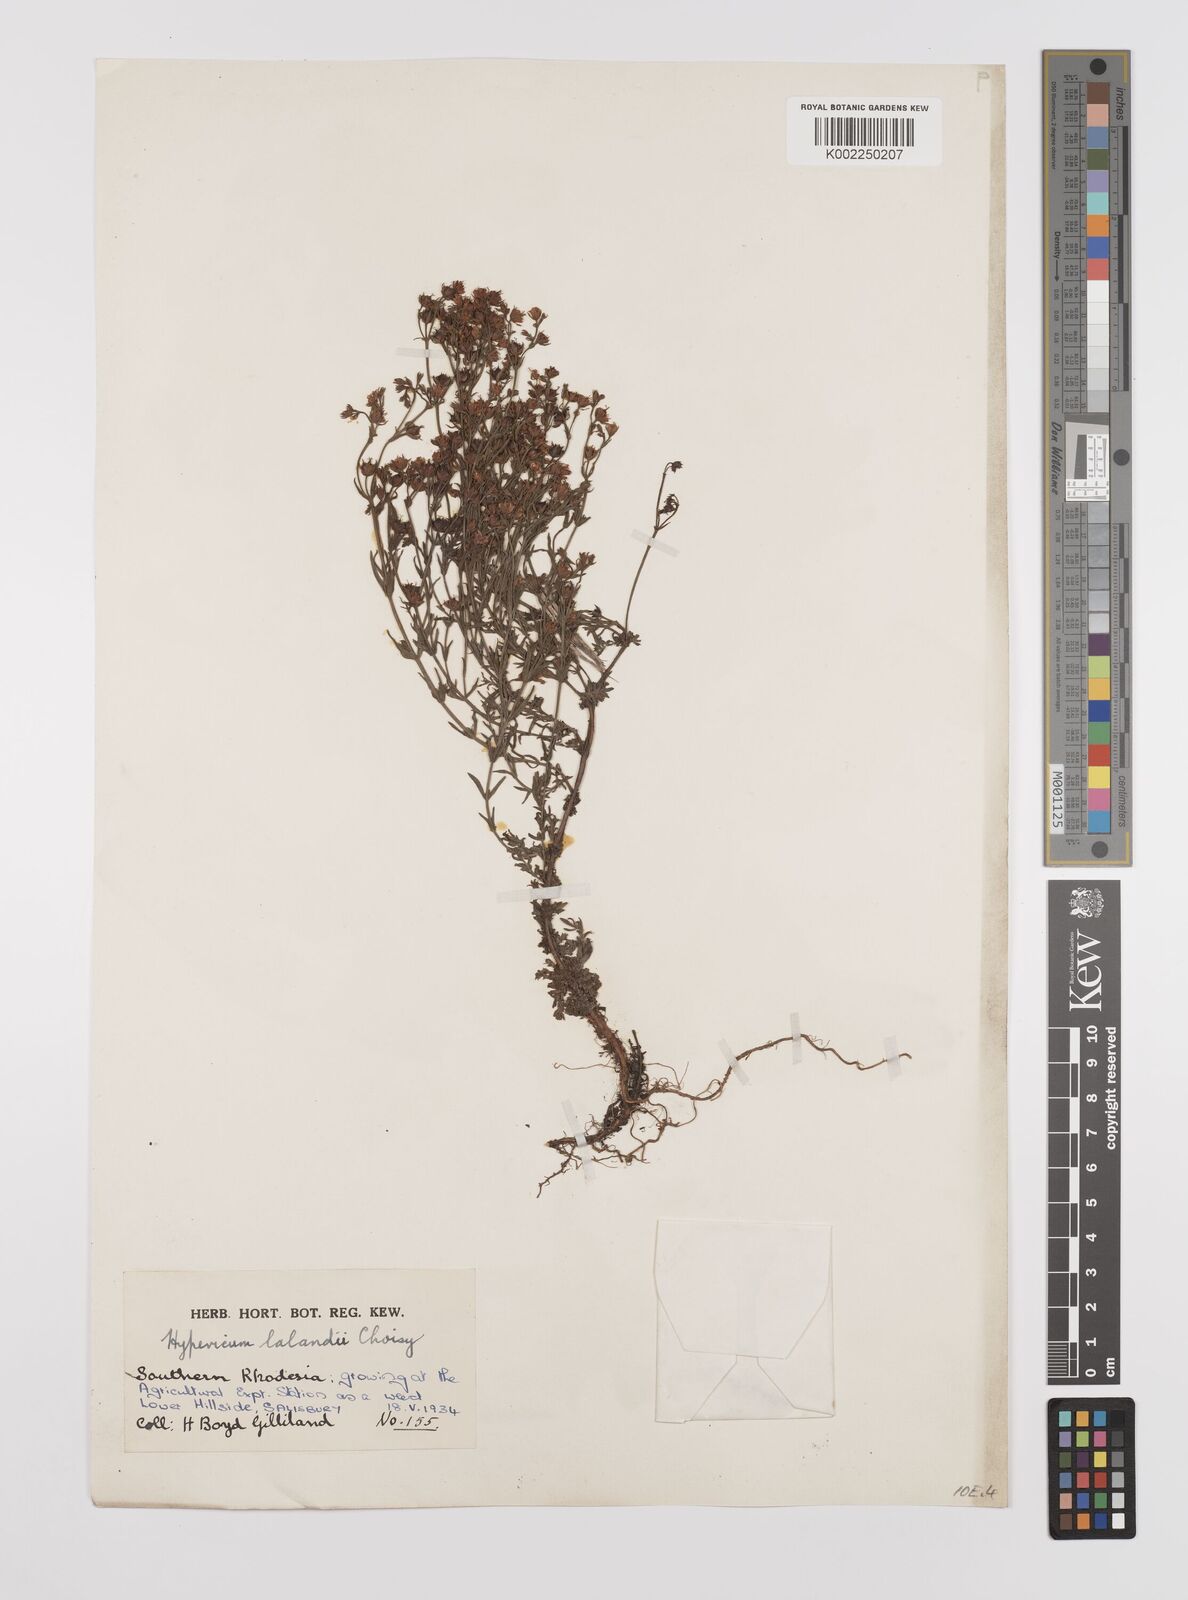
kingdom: Plantae
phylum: Tracheophyta
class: Magnoliopsida
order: Malpighiales
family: Hypericaceae
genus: Hypericum
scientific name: Hypericum lalandii
